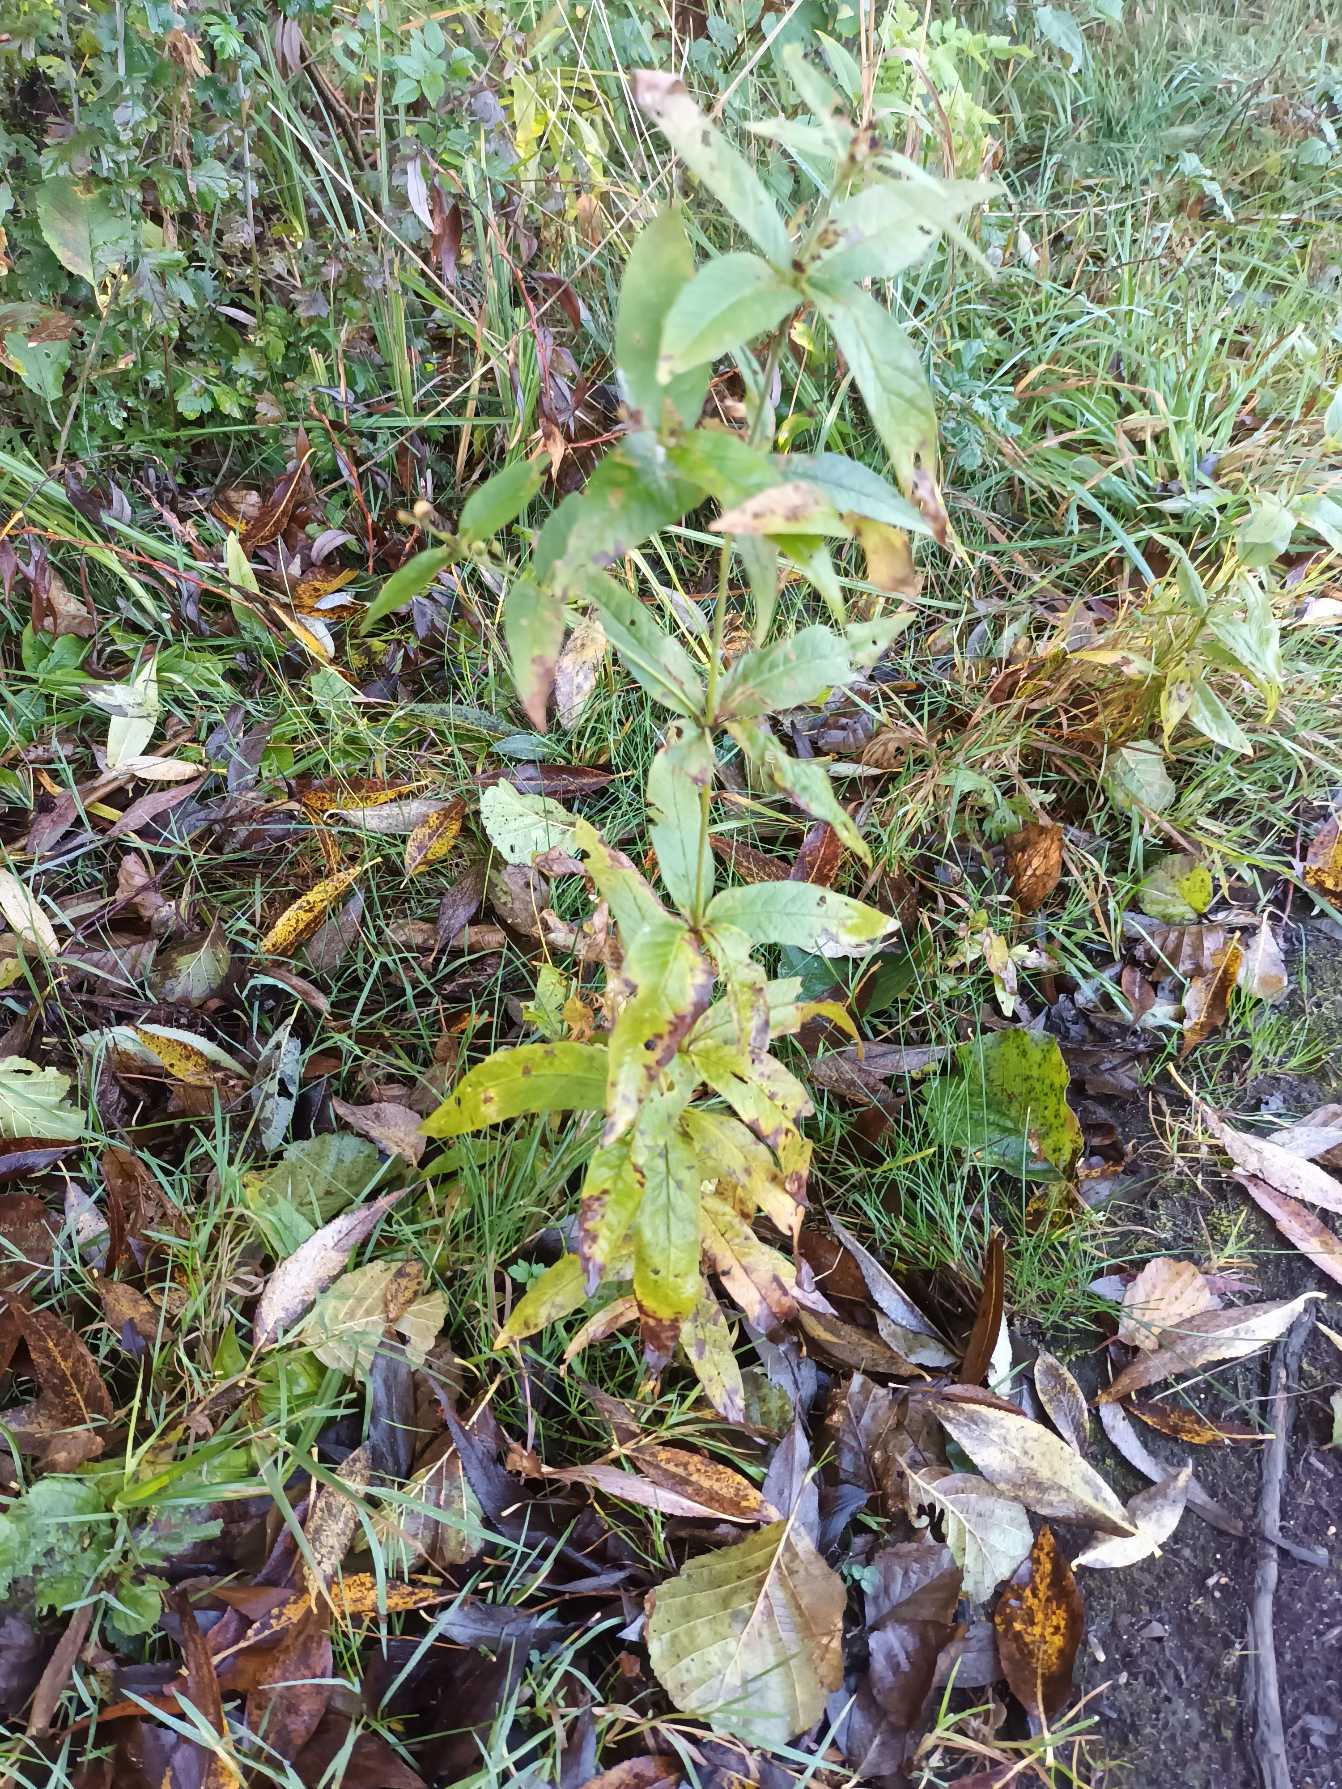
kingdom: Plantae
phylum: Tracheophyta
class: Magnoliopsida
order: Ericales
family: Primulaceae
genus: Lysimachia
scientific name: Lysimachia vulgaris
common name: Almindelig fredløs
